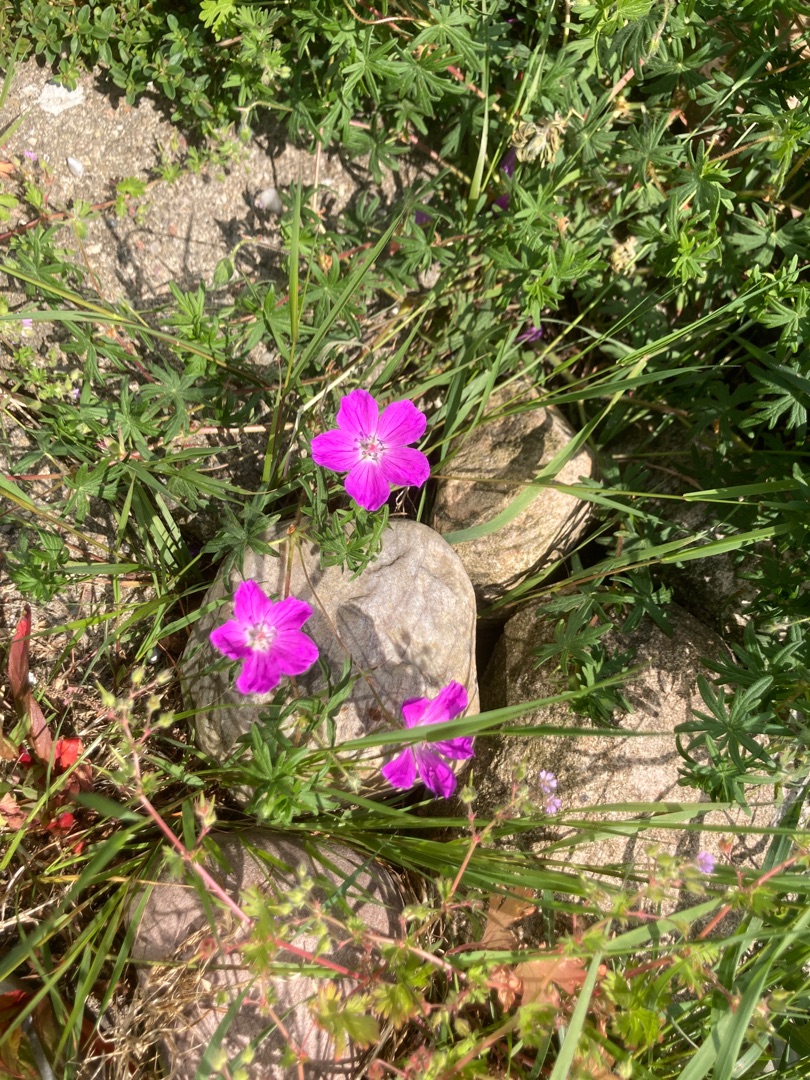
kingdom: Plantae
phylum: Tracheophyta
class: Magnoliopsida
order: Geraniales
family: Geraniaceae
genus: Geranium
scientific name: Geranium sanguineum
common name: Blodrød storkenæb
